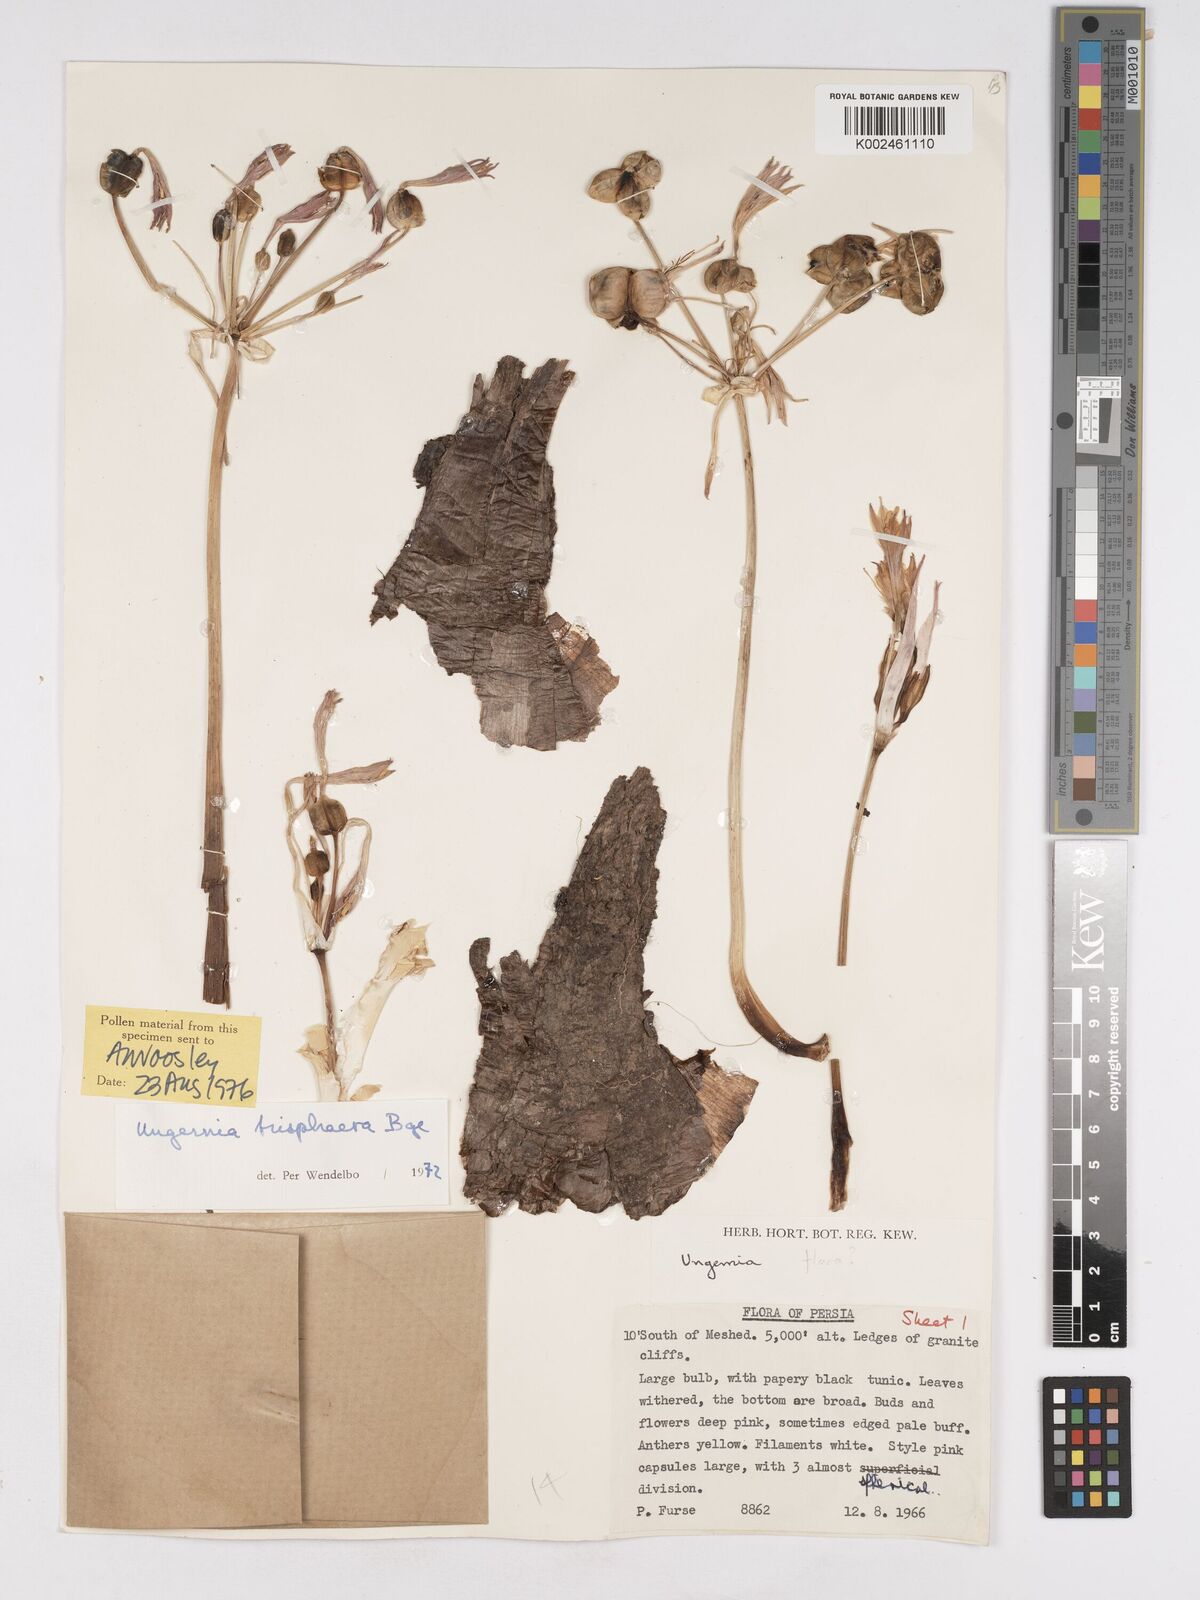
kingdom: Plantae
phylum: Tracheophyta
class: Liliopsida
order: Asparagales
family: Amaryllidaceae
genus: Ungernia
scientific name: Ungernia trisphaera
